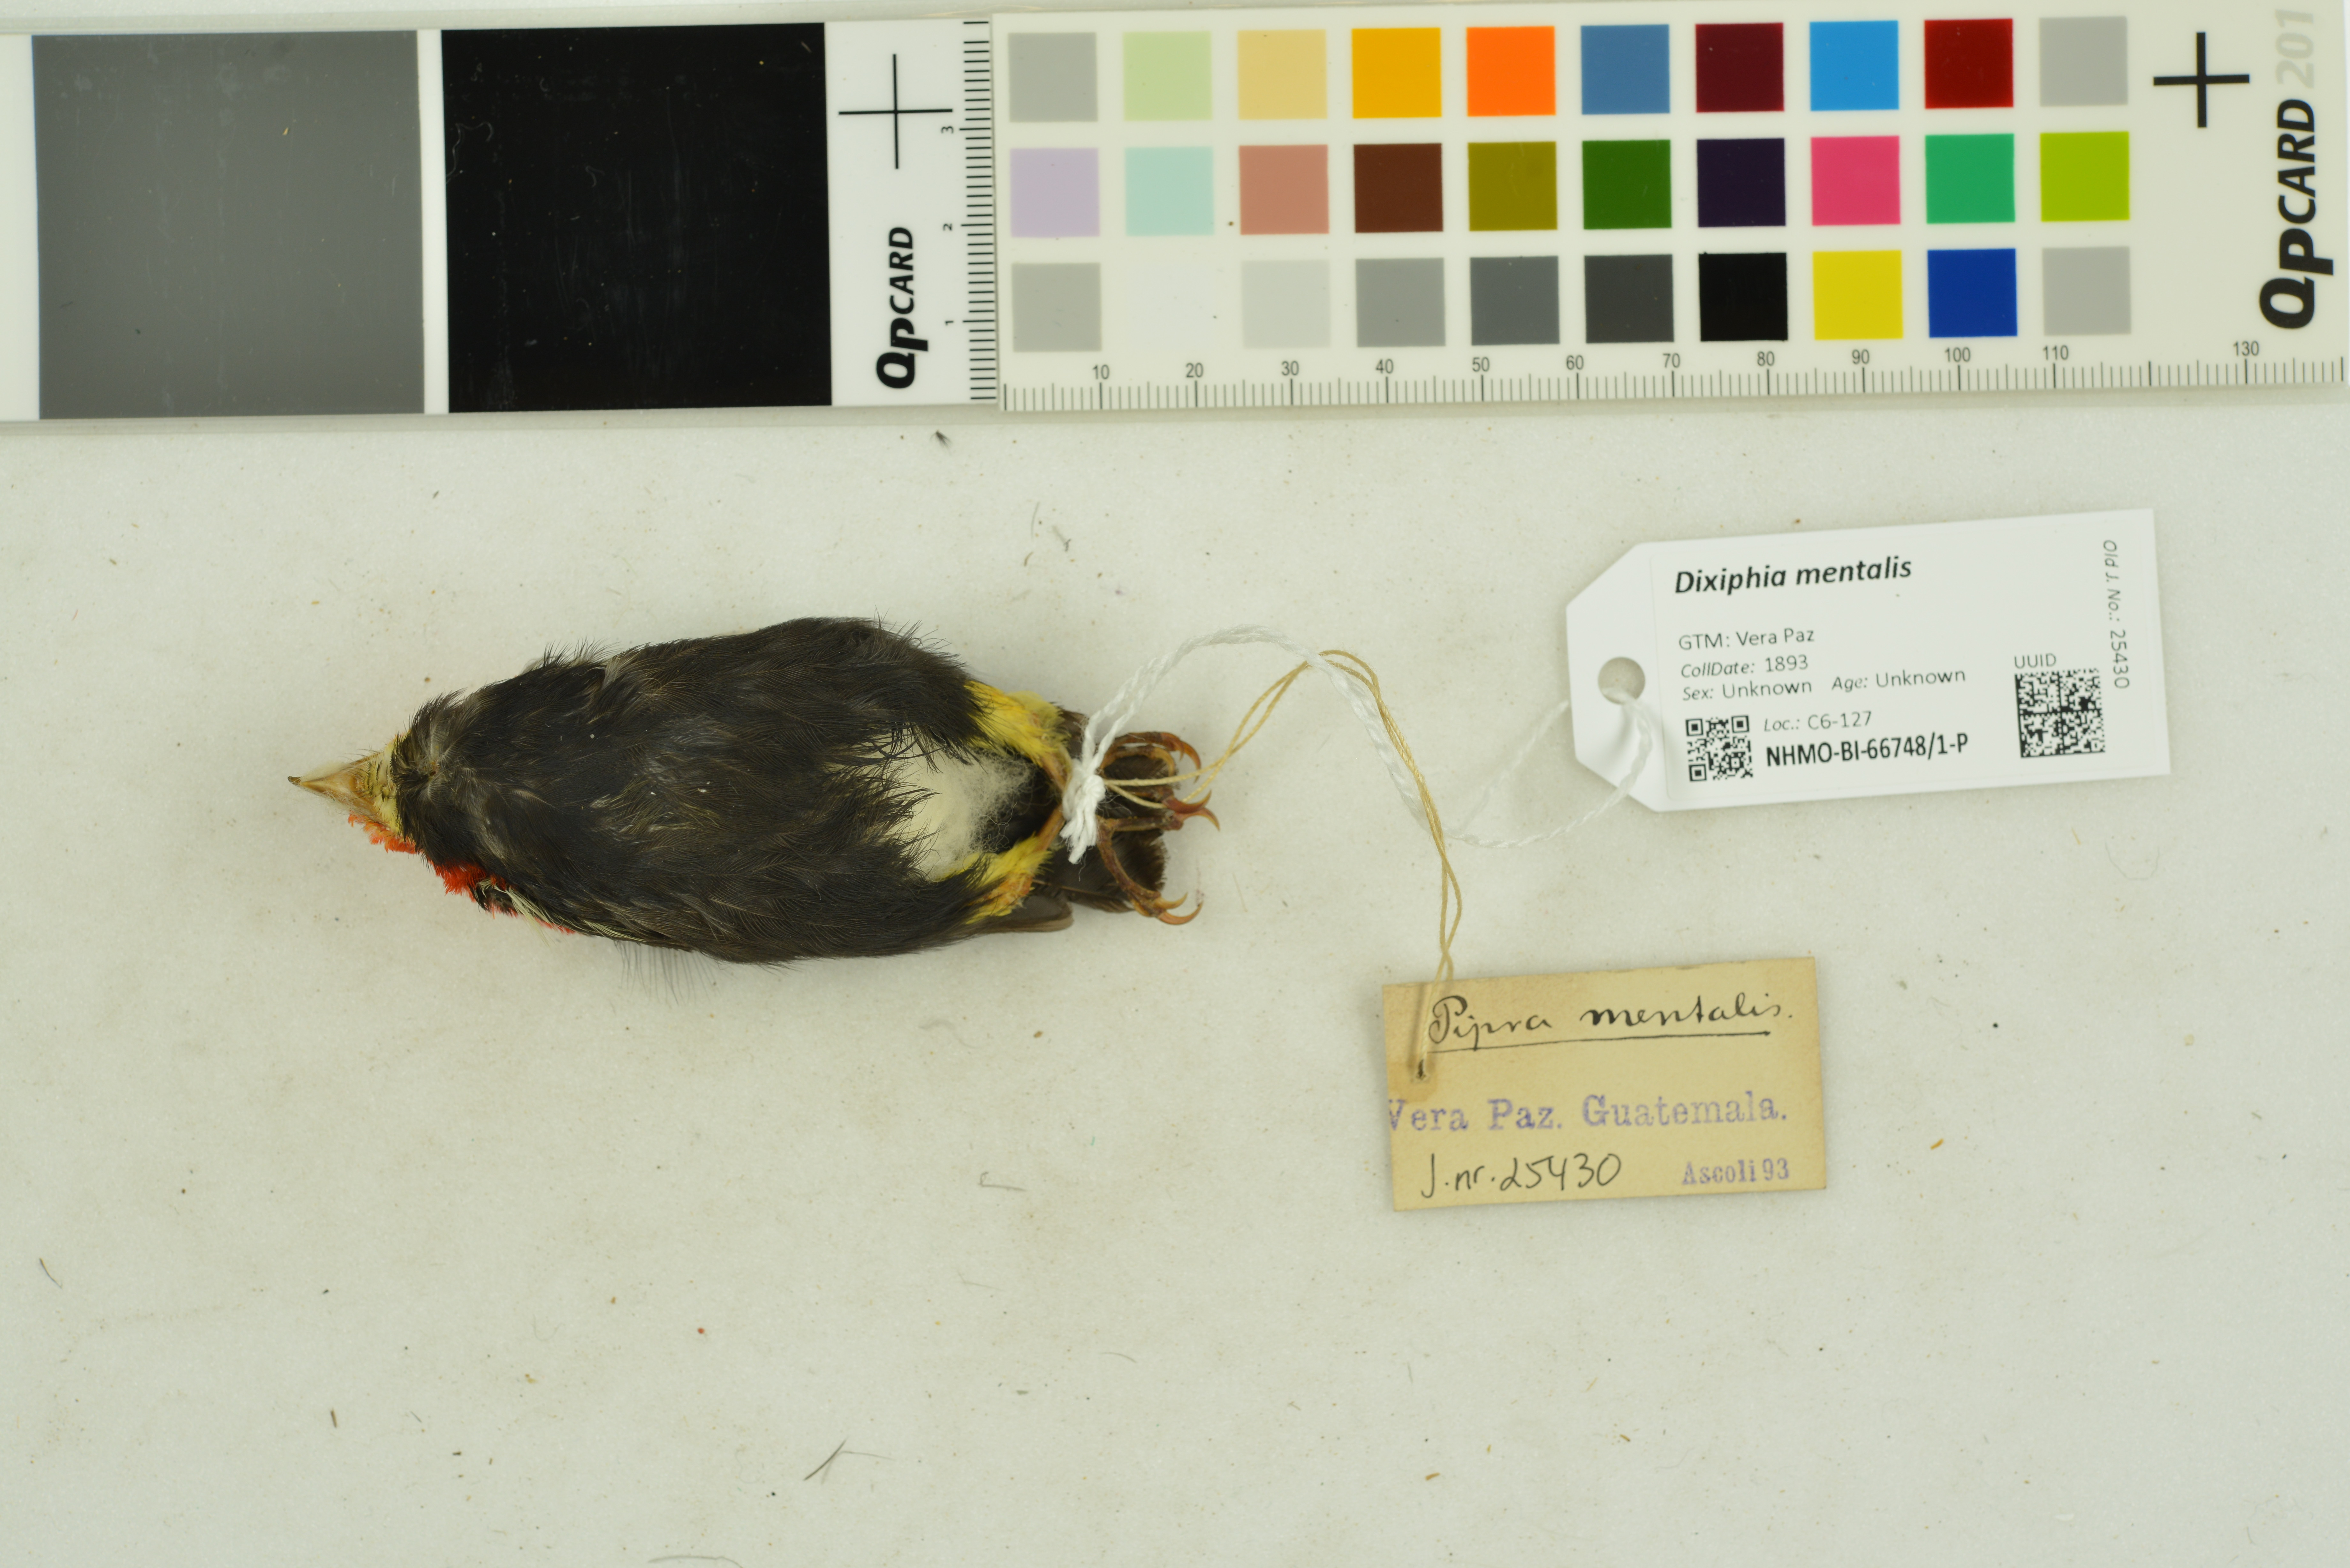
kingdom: Animalia
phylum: Chordata
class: Aves
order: Passeriformes
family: Pipridae
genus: Pipra
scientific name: Pipra mentalis
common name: Red-capped manakin
